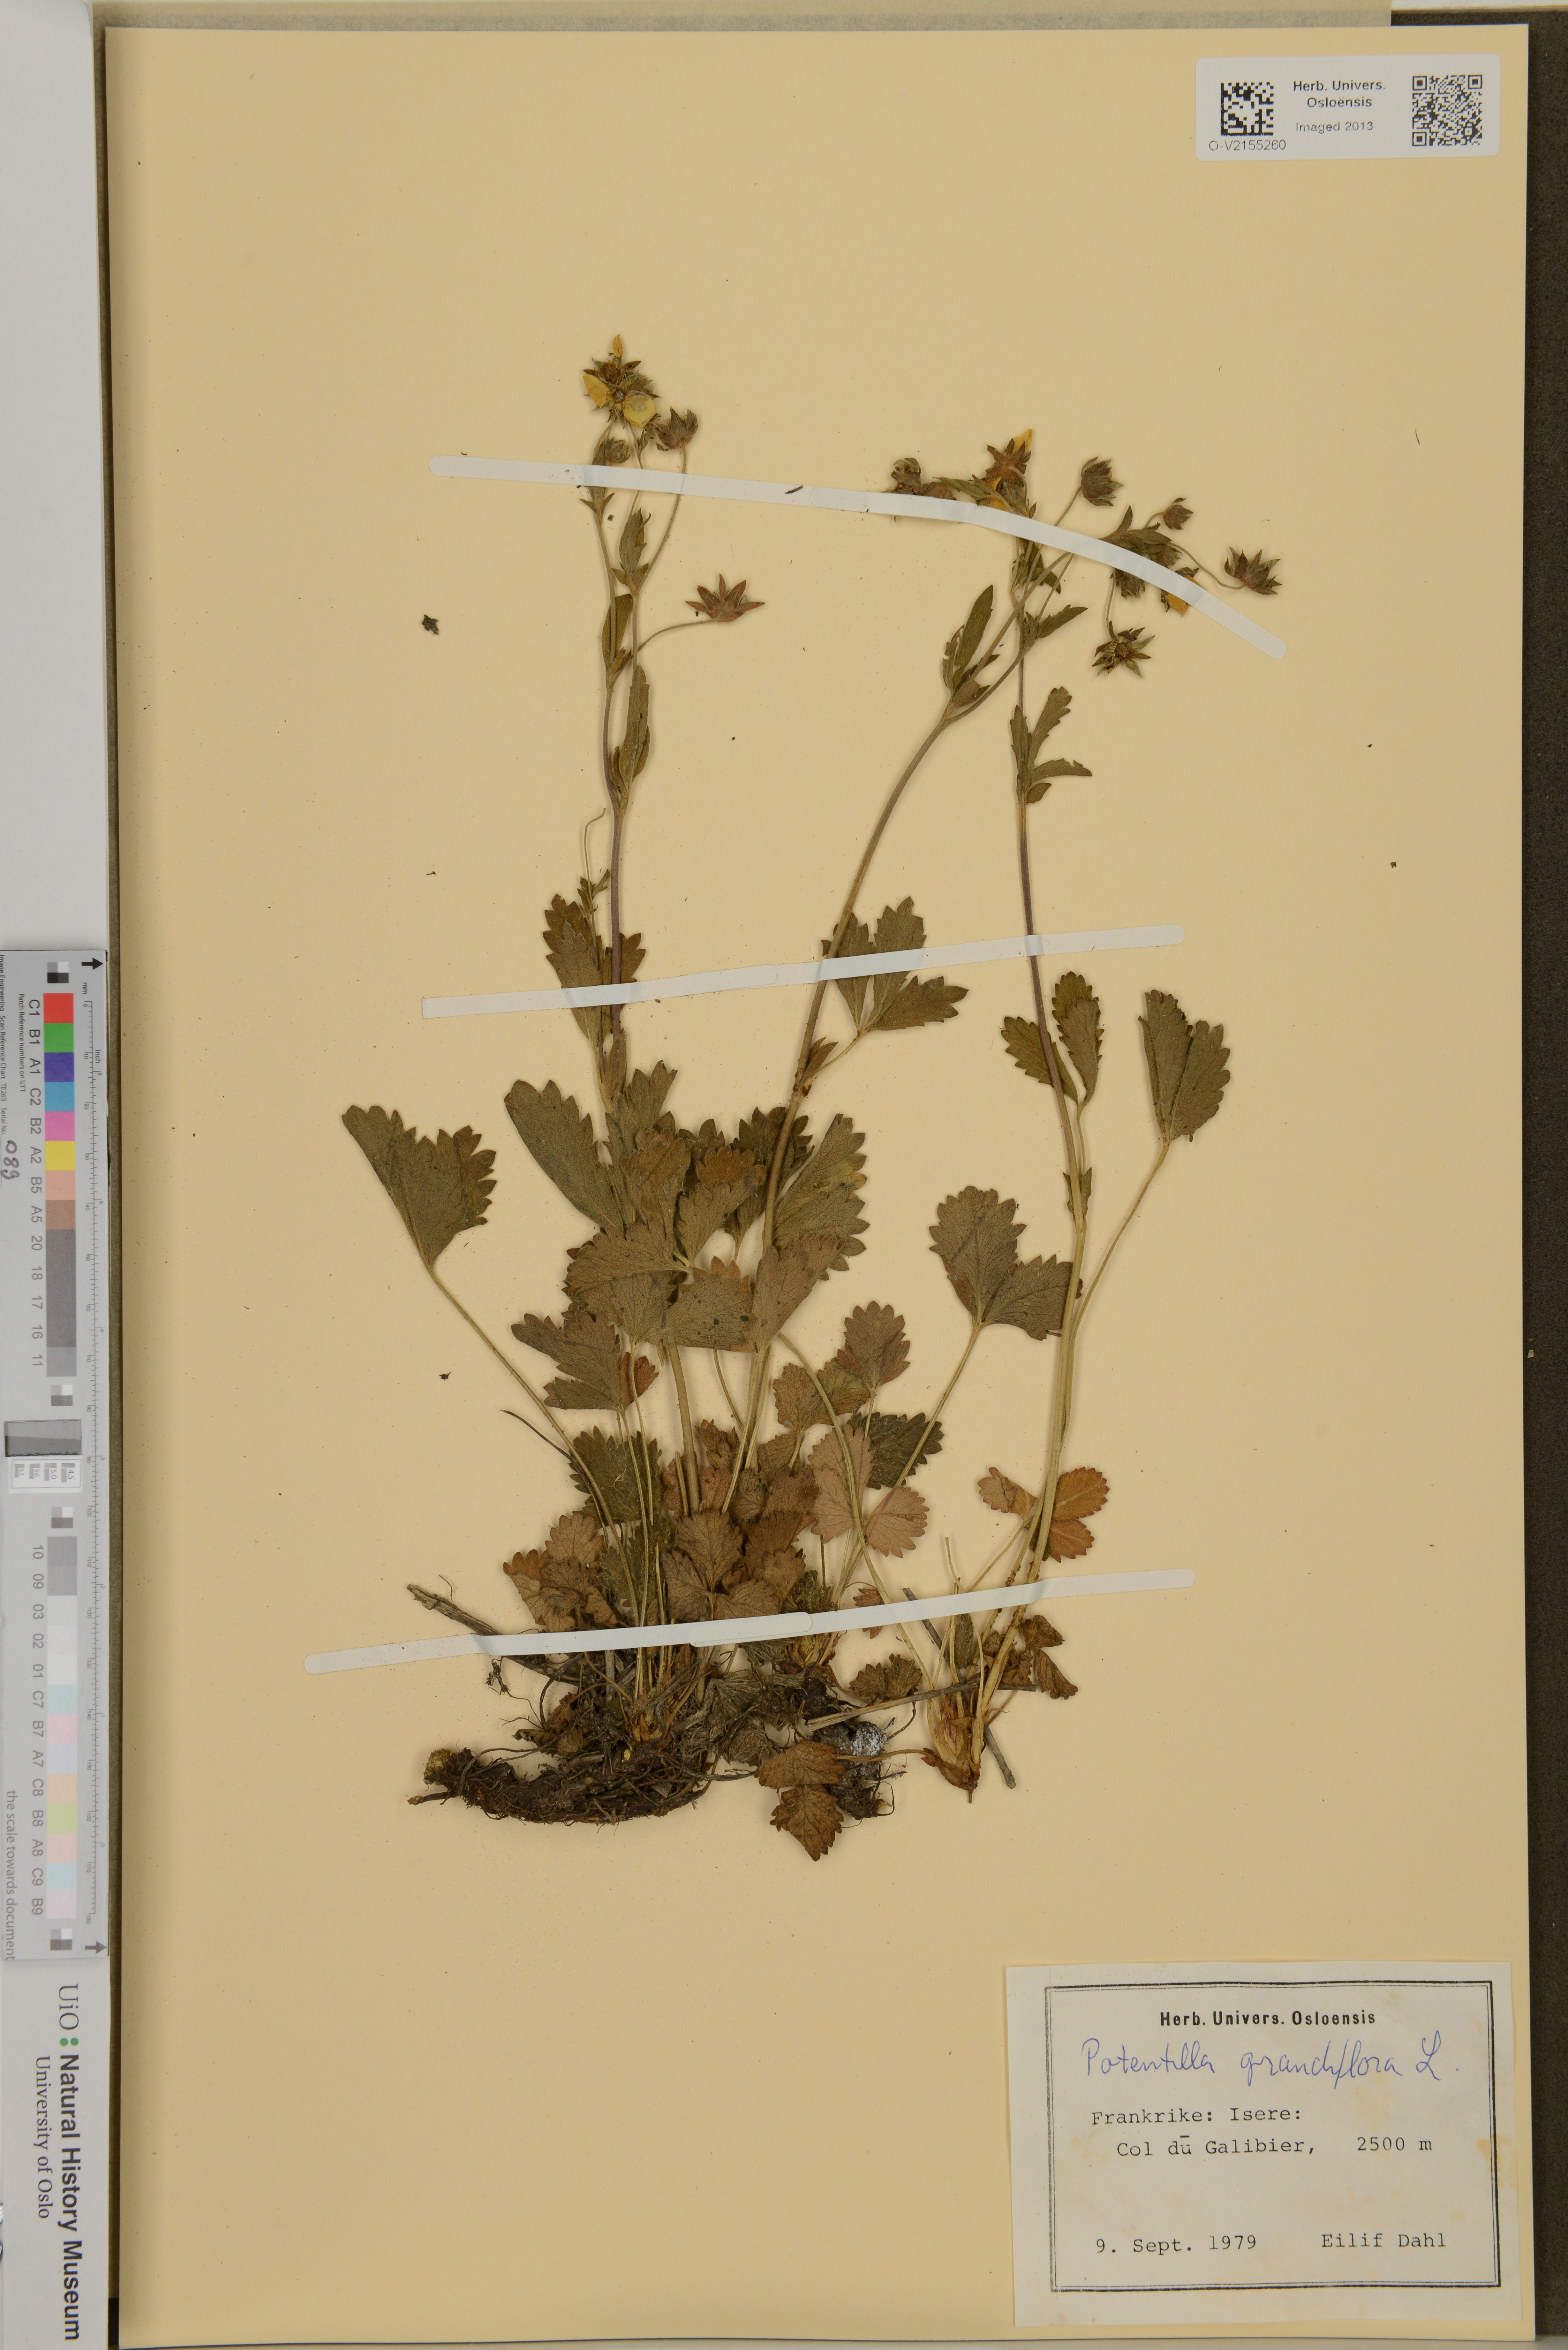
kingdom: Plantae
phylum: Tracheophyta
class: Magnoliopsida
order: Rosales
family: Rosaceae
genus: Potentilla
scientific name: Potentilla grandiflora
